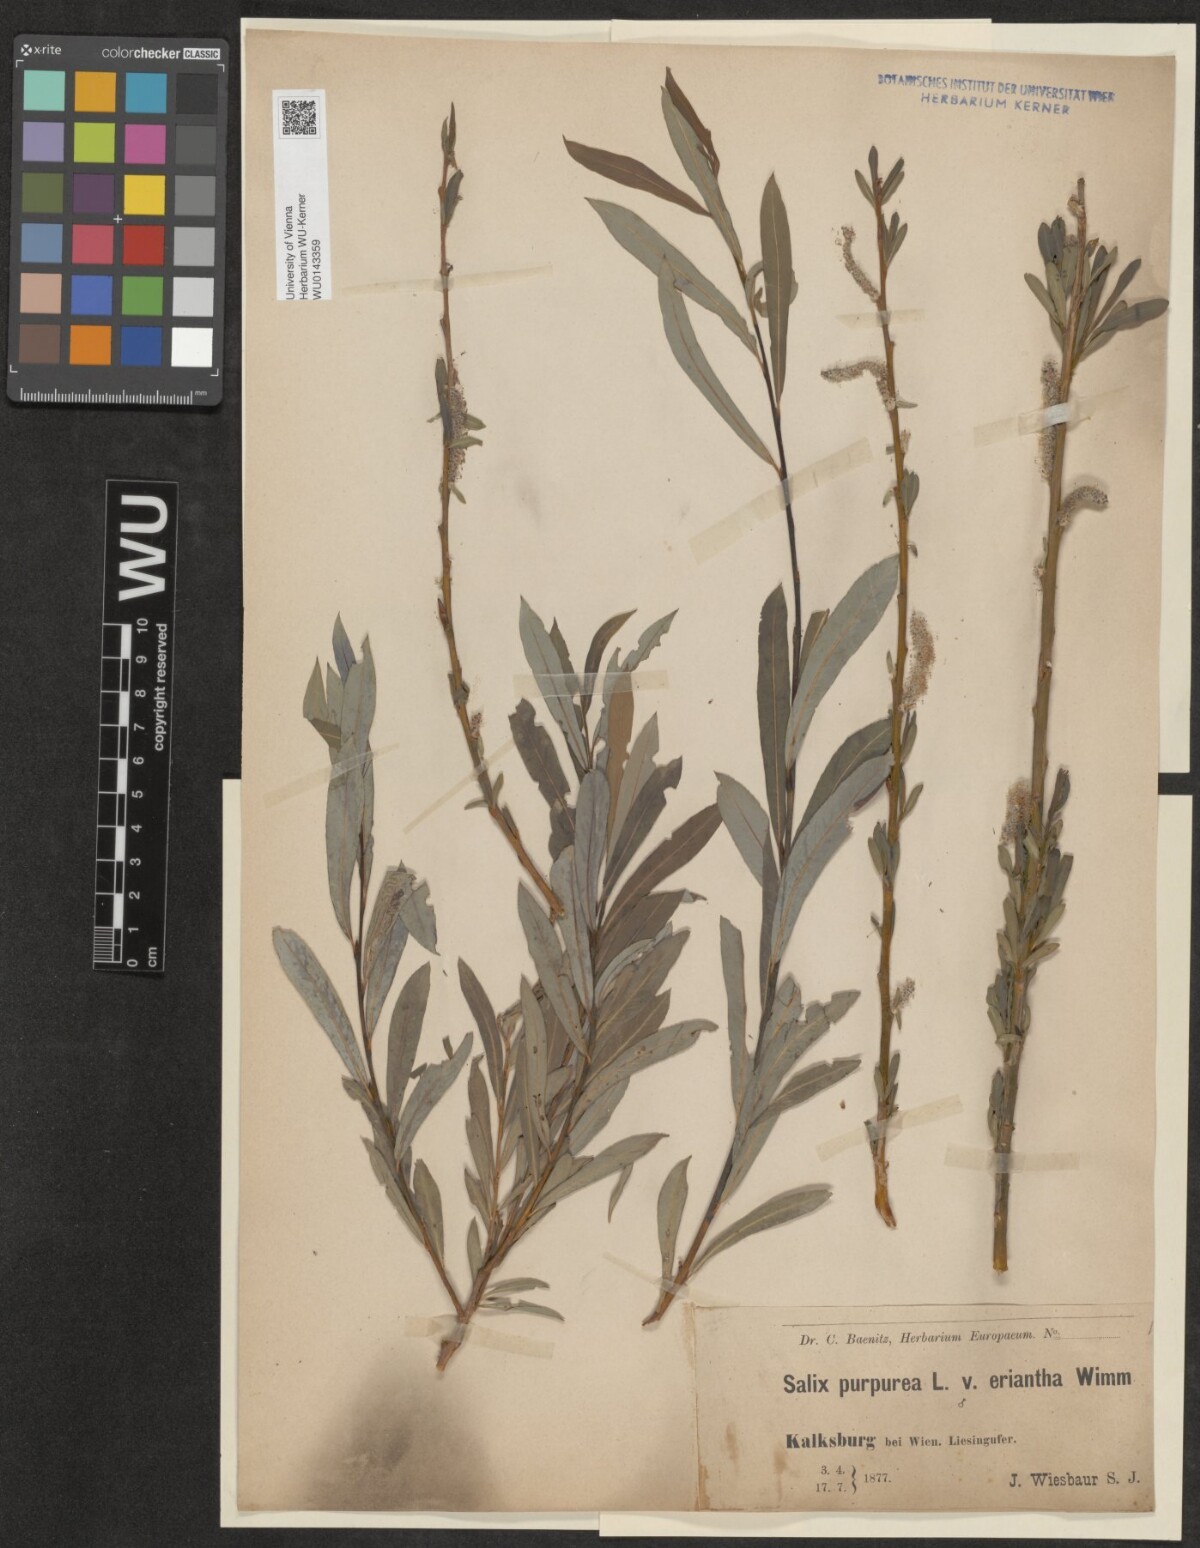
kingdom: Plantae
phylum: Tracheophyta
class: Magnoliopsida
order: Malpighiales
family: Salicaceae
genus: Salix
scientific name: Salix purpurea
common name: Purple willow
